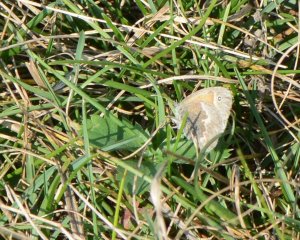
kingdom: Animalia
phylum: Arthropoda
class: Insecta
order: Lepidoptera
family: Nymphalidae
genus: Coenonympha
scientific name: Coenonympha tullia
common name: Large Heath
